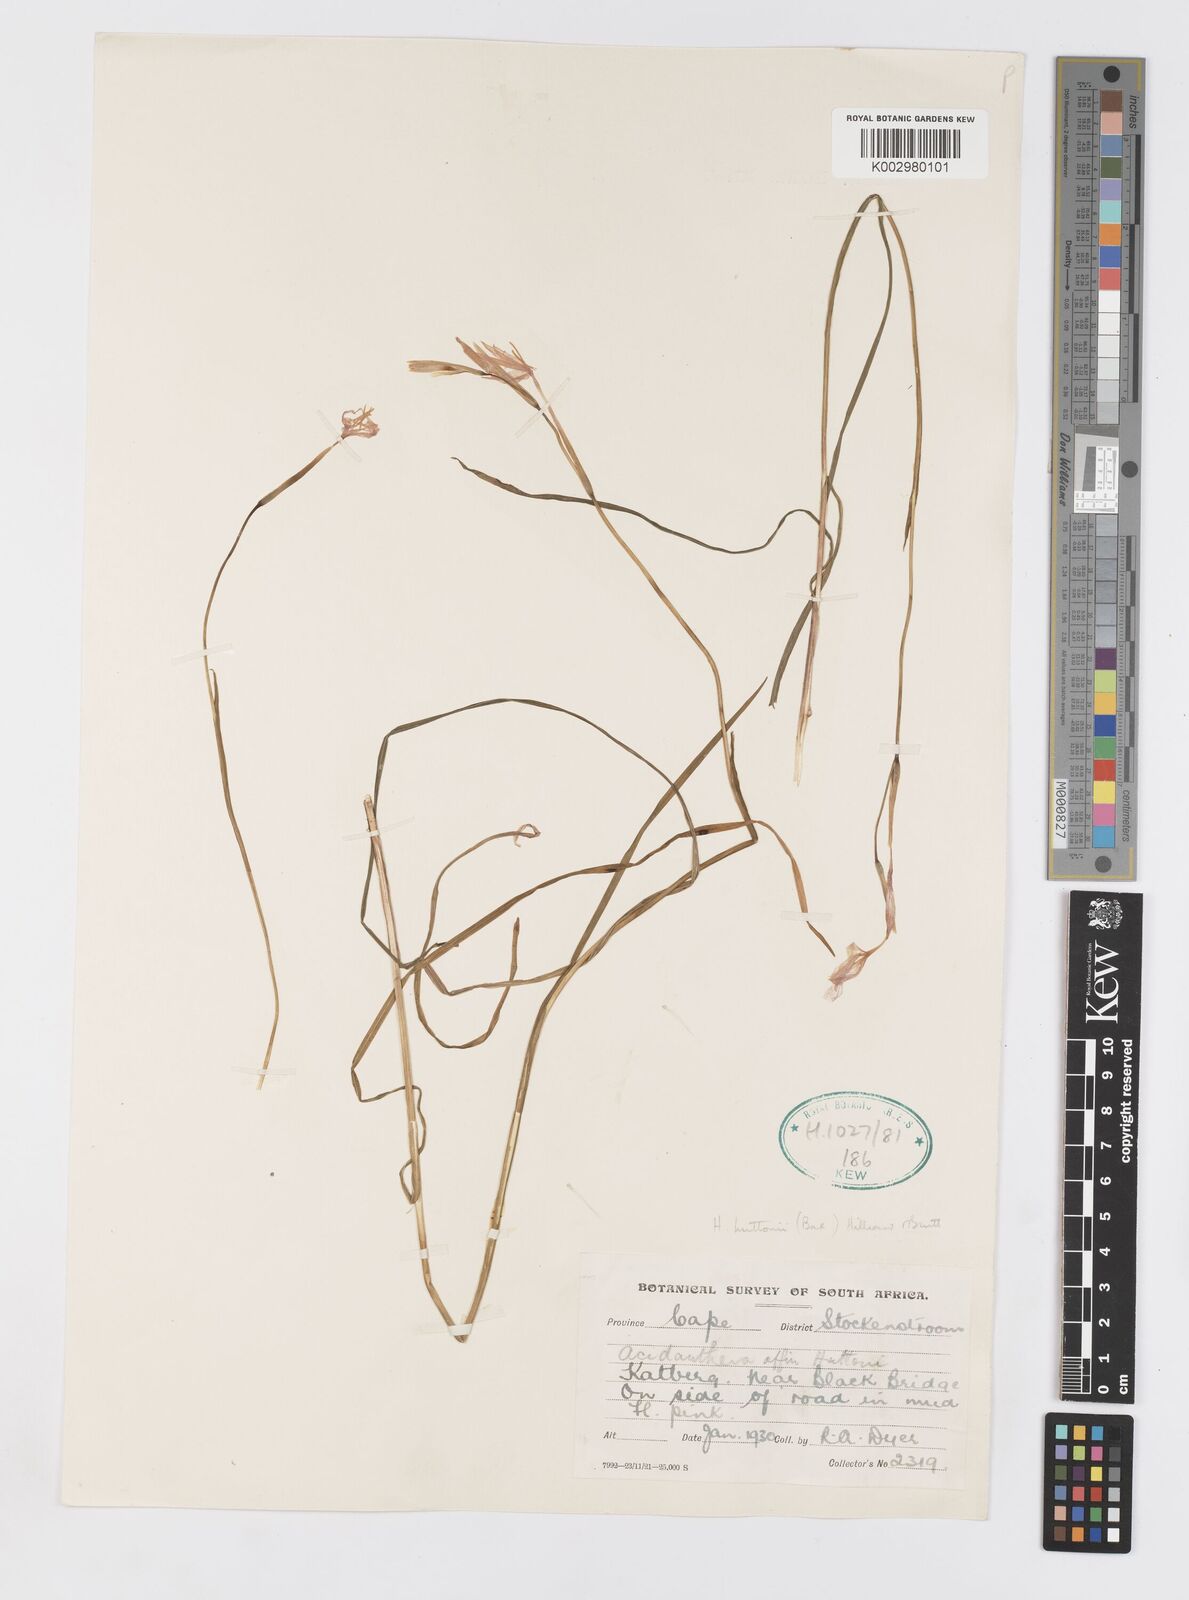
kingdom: Plantae
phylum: Tracheophyta
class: Liliopsida
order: Asparagales
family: Iridaceae
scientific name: Iridaceae
